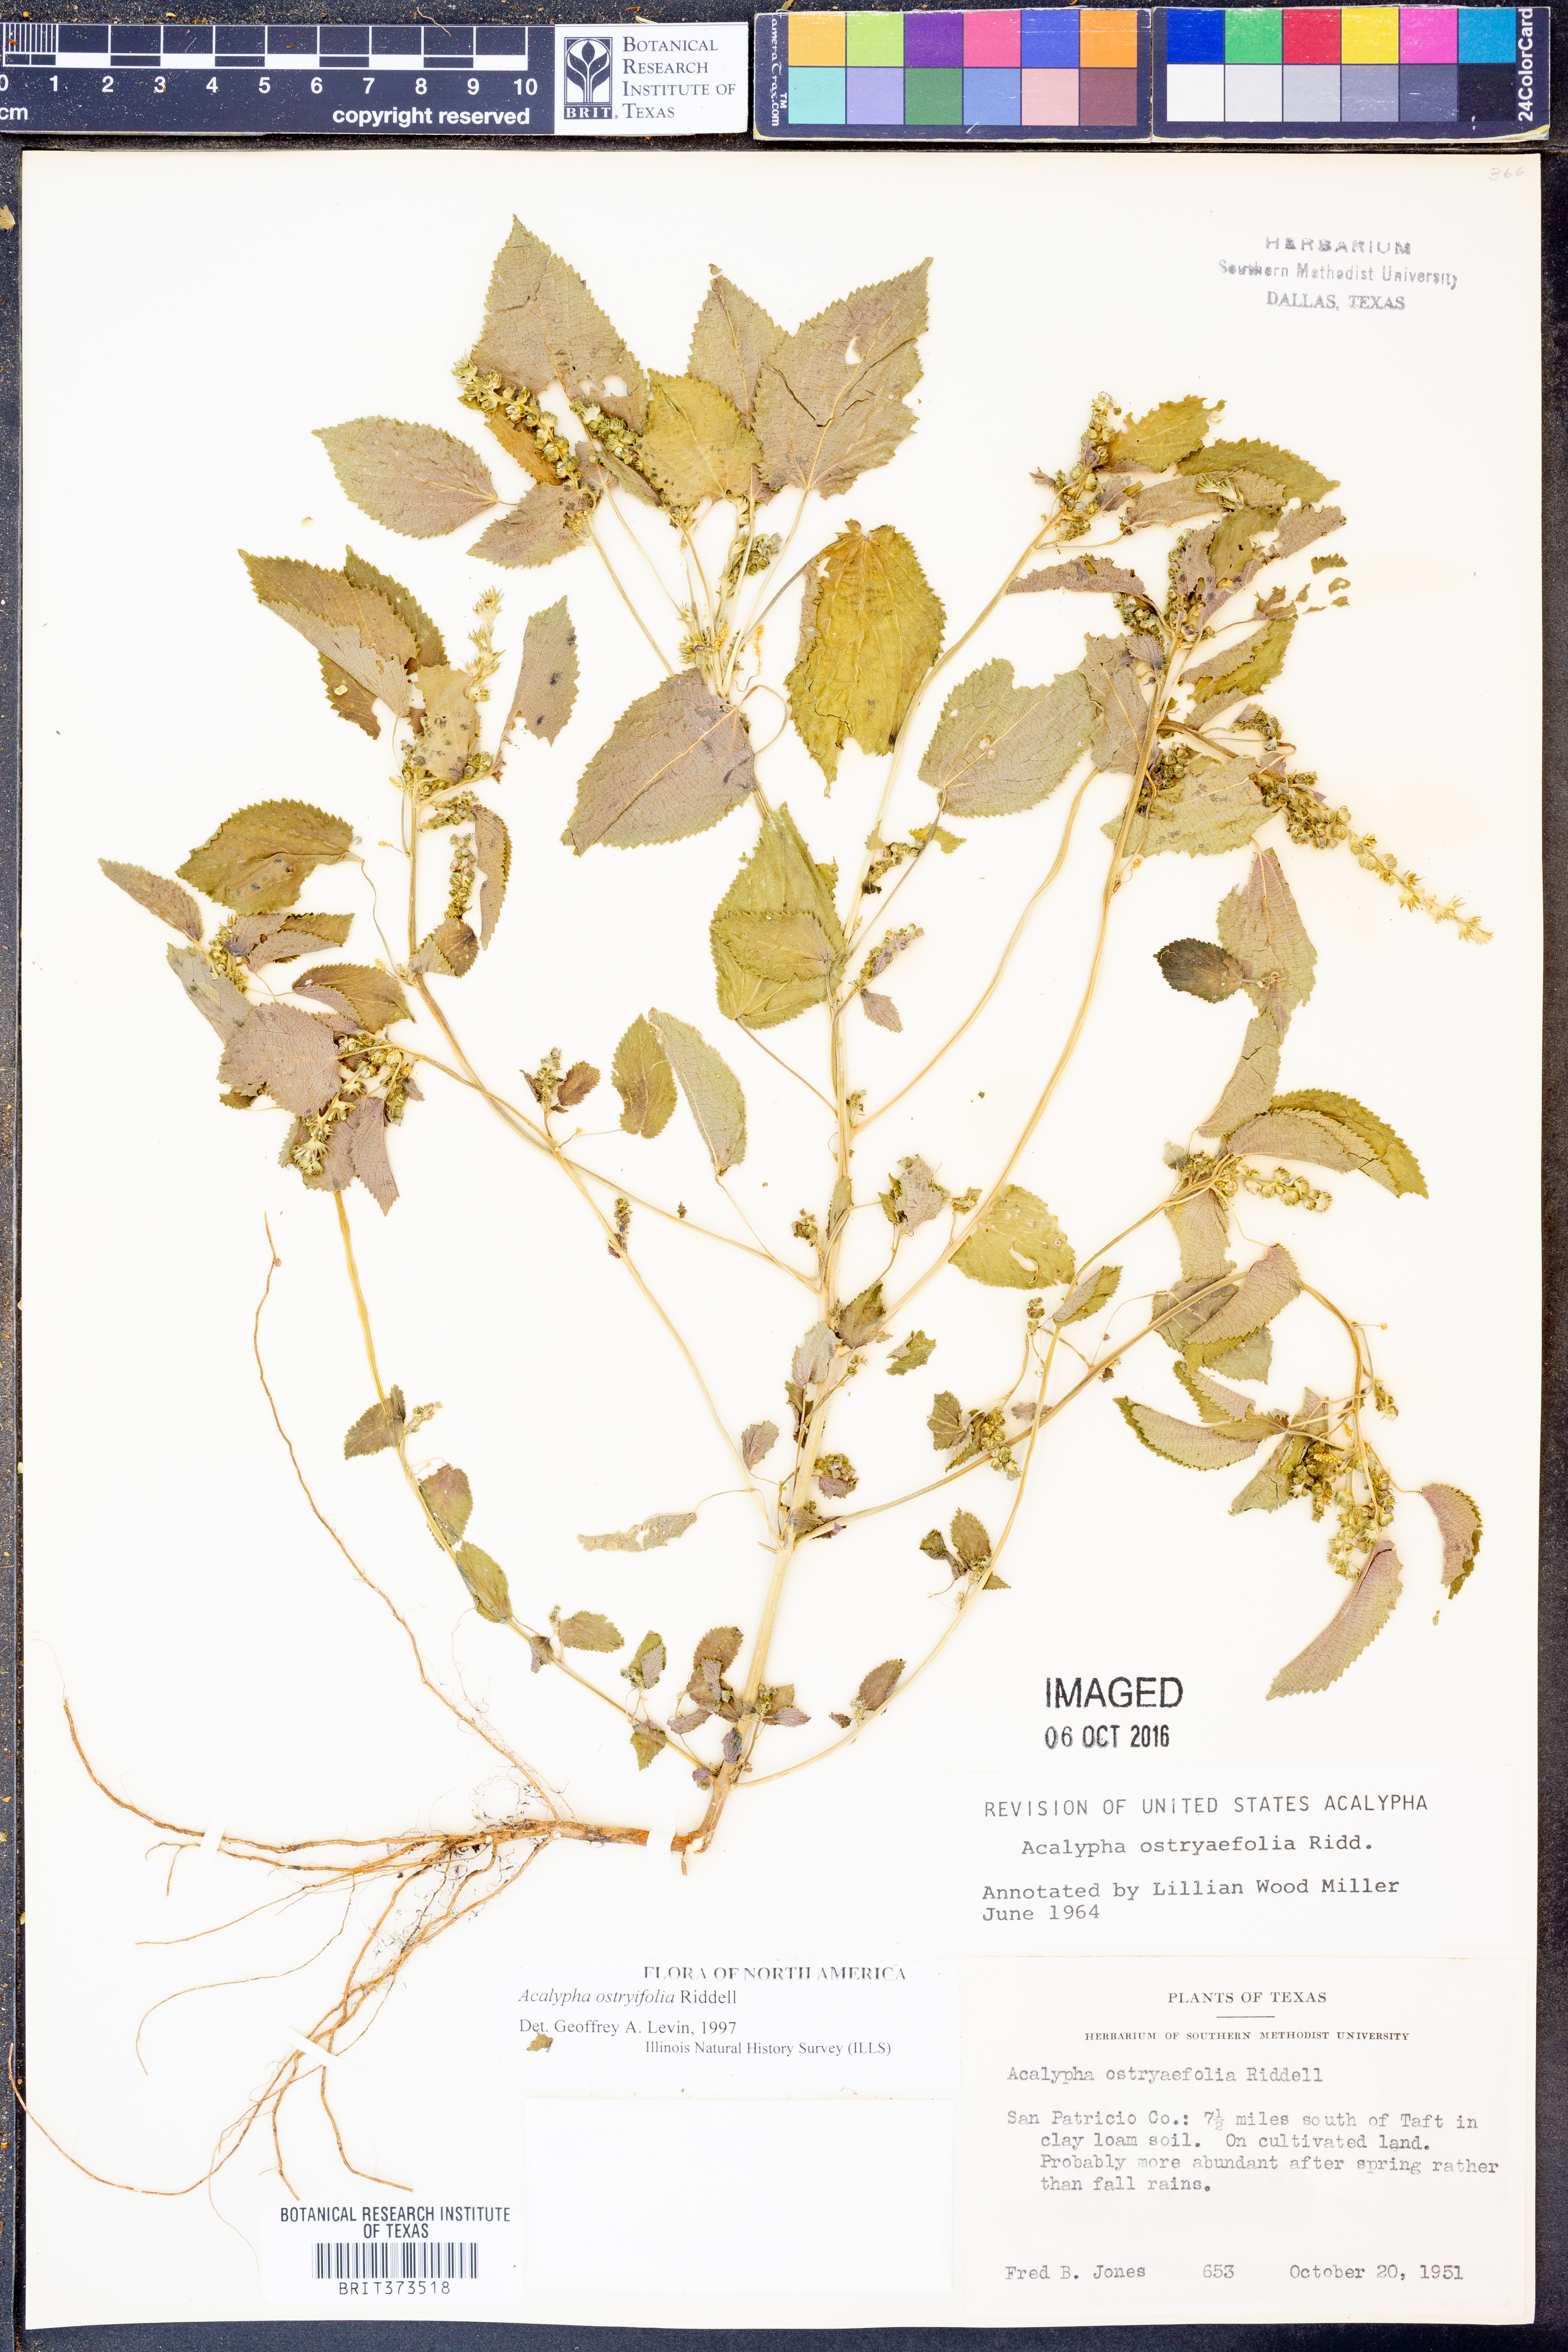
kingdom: Plantae
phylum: Tracheophyta
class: Magnoliopsida
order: Malpighiales
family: Euphorbiaceae
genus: Acalypha
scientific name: Acalypha persimilis
